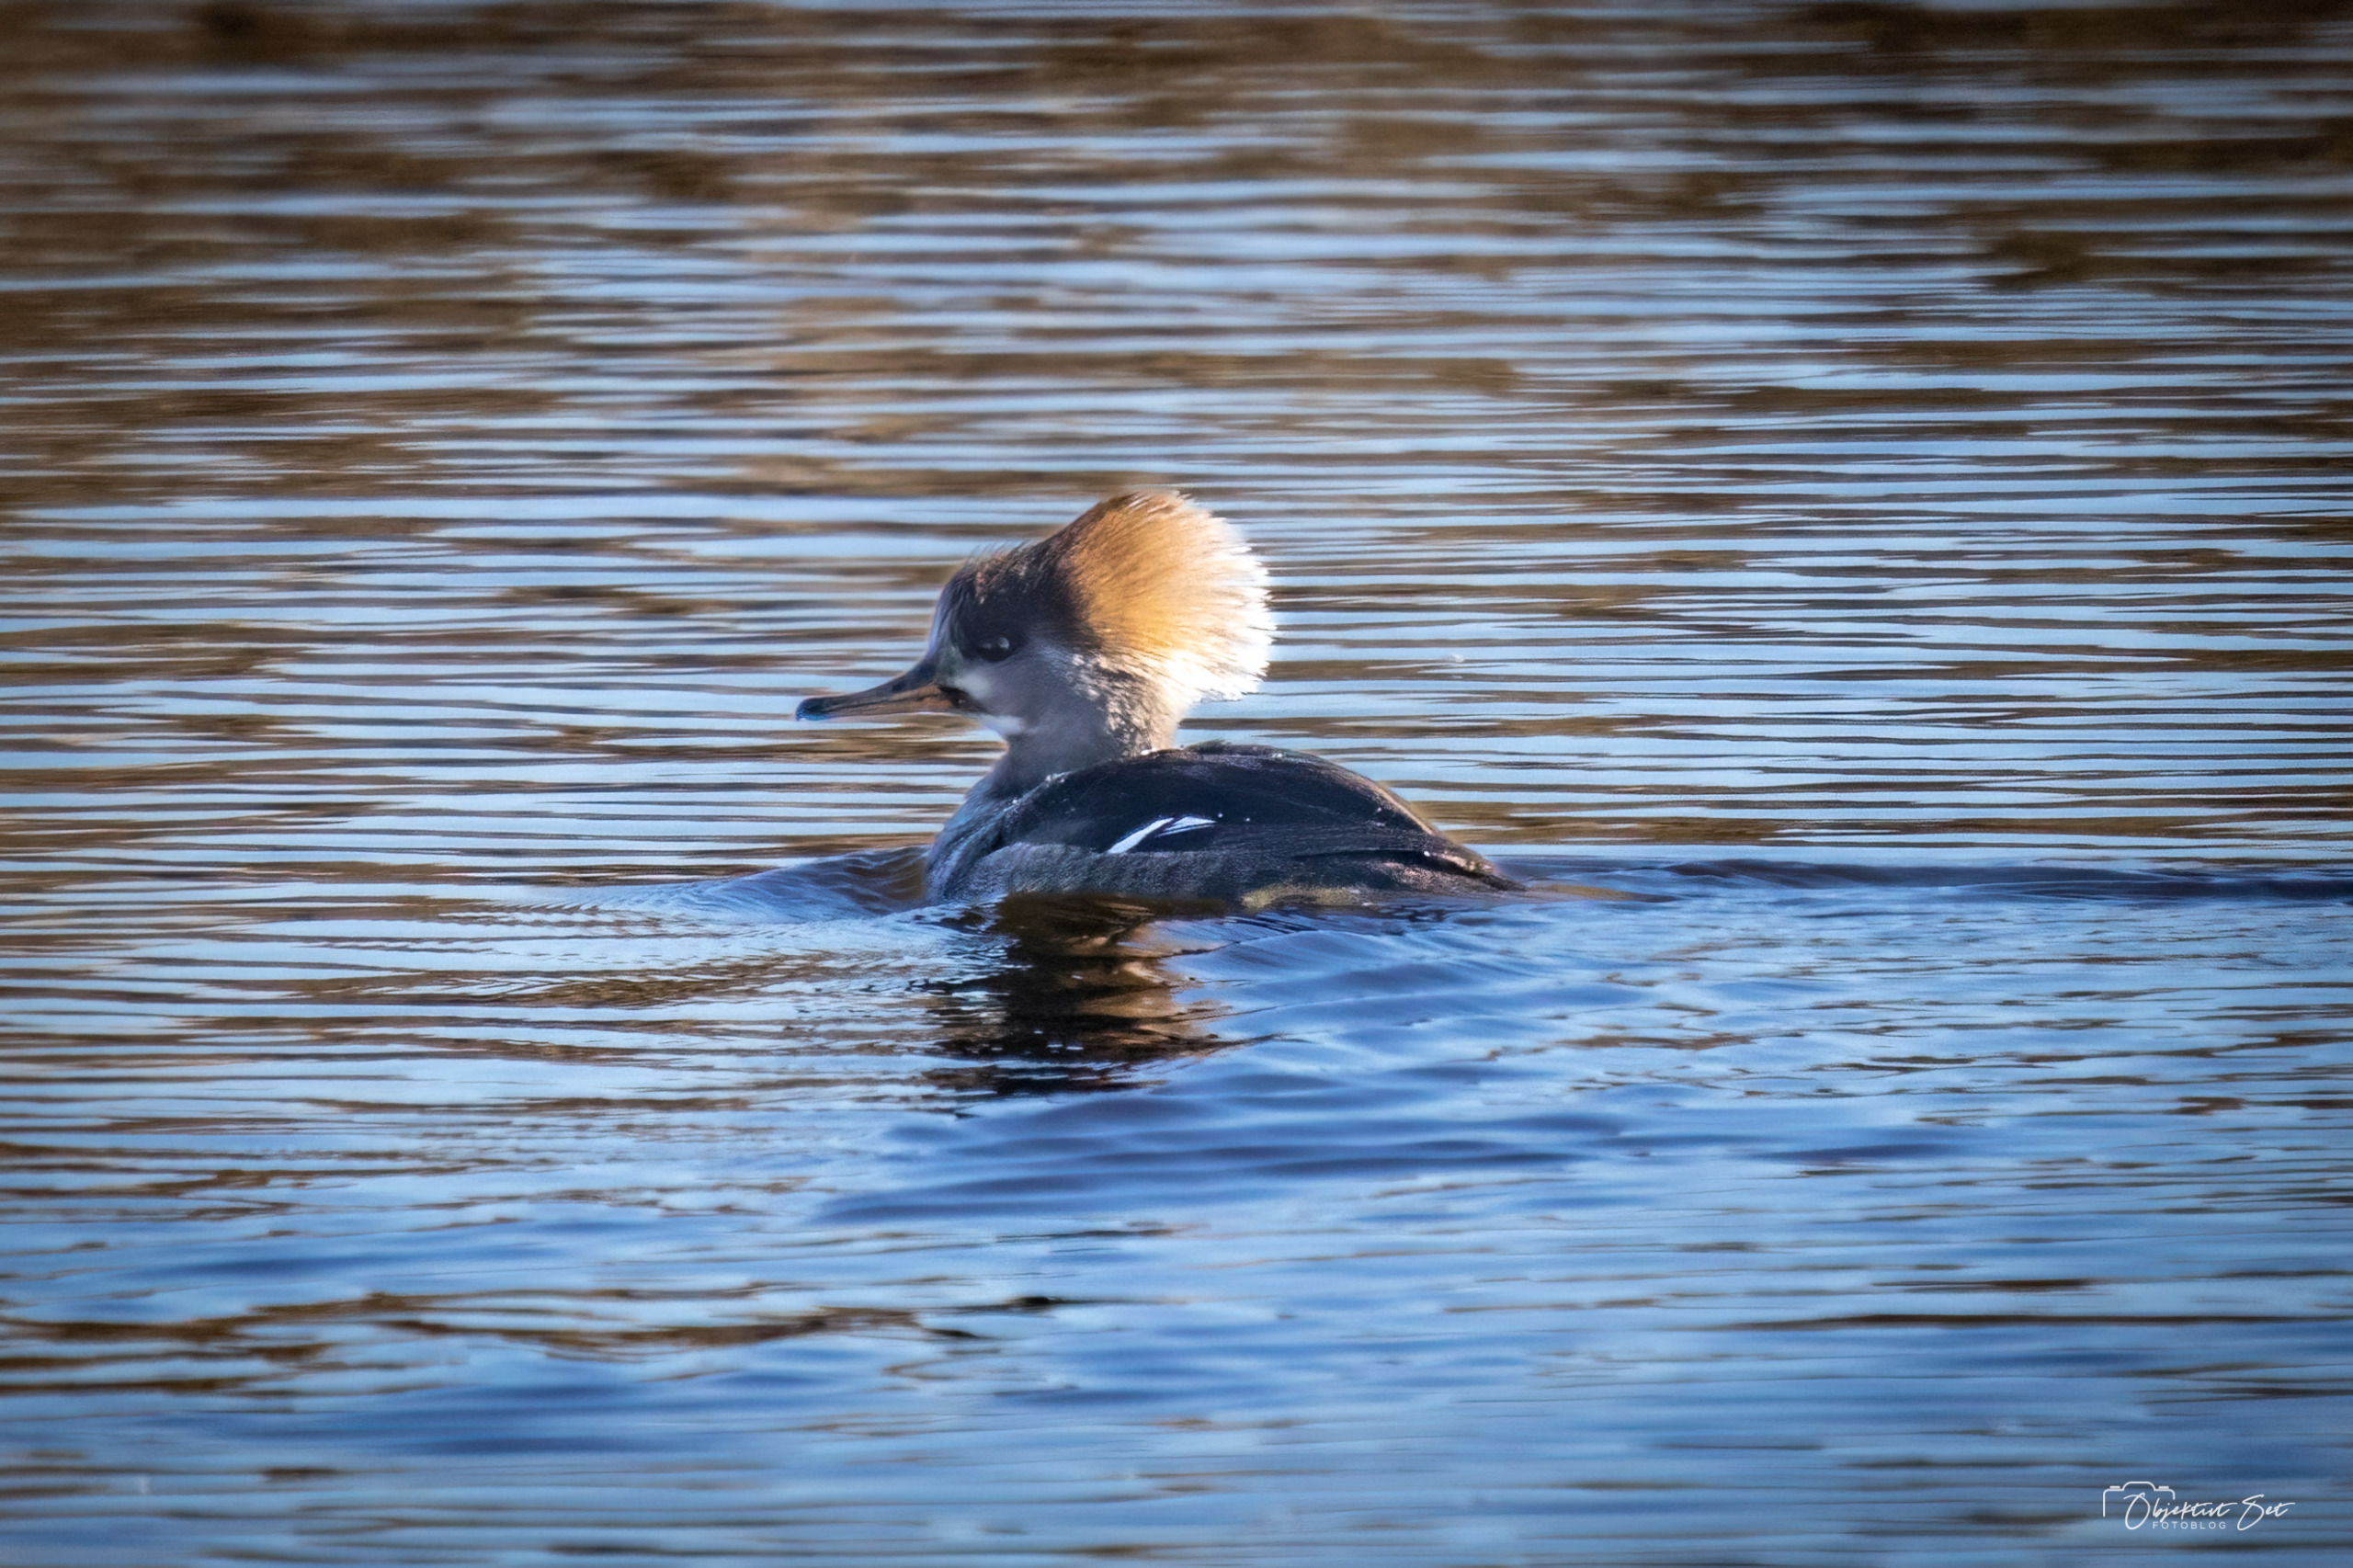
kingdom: Animalia
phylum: Chordata
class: Aves
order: Anseriformes
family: Anatidae
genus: Lophodytes
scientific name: Lophodytes cucullatus
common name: Hjelmskallesluger
